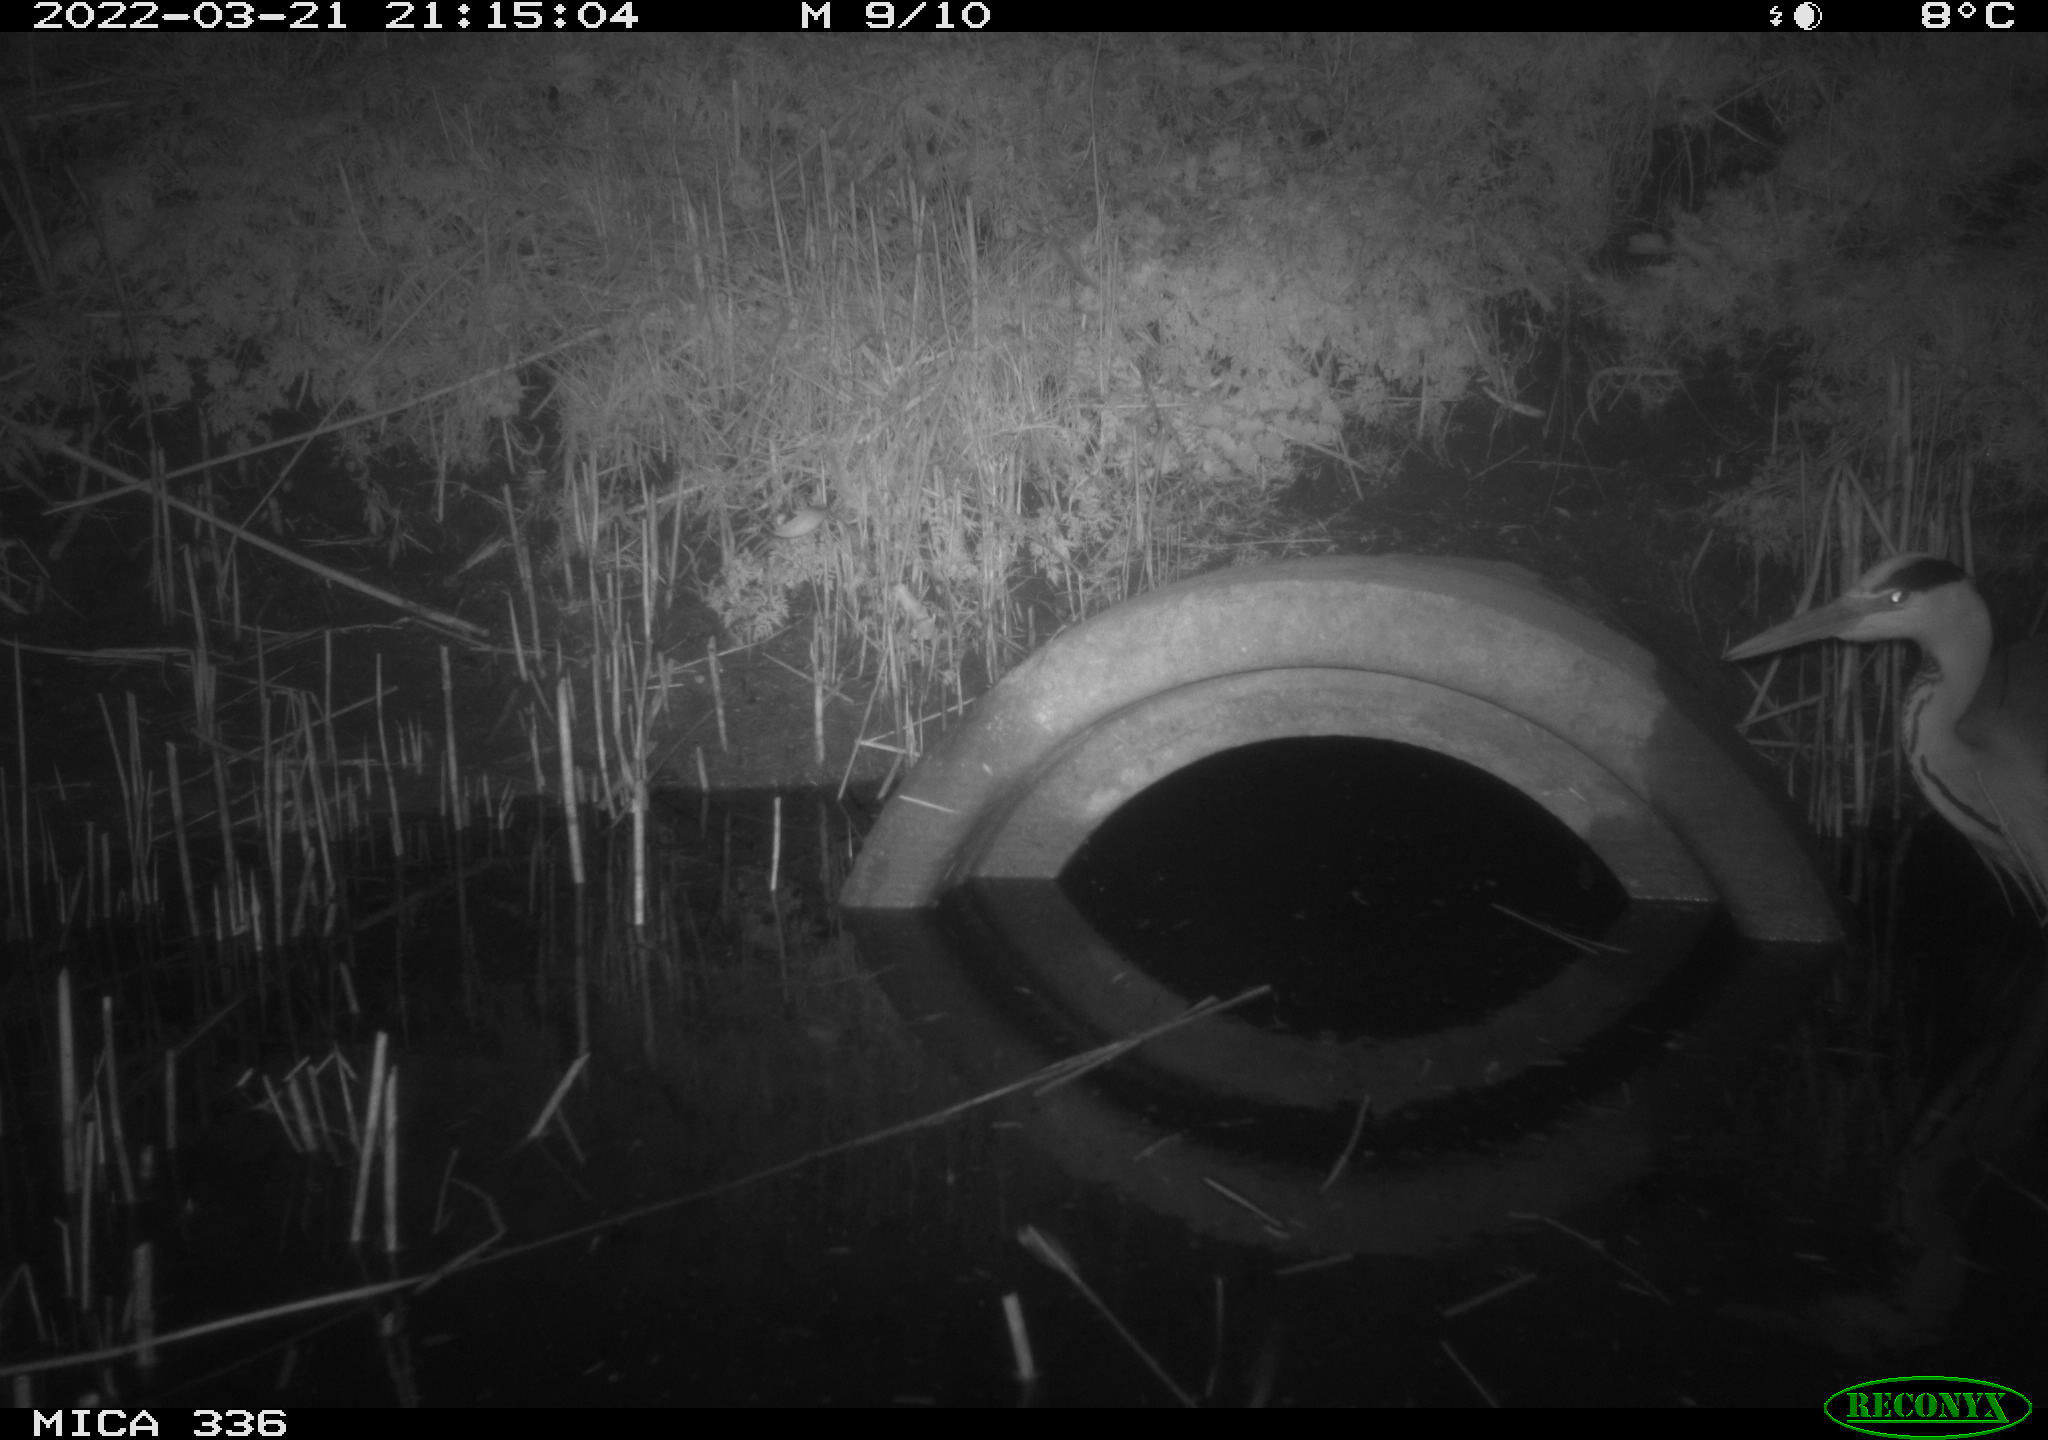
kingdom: Animalia
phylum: Chordata
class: Aves
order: Pelecaniformes
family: Ardeidae
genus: Ardea
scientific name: Ardea cinerea
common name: Grey heron
